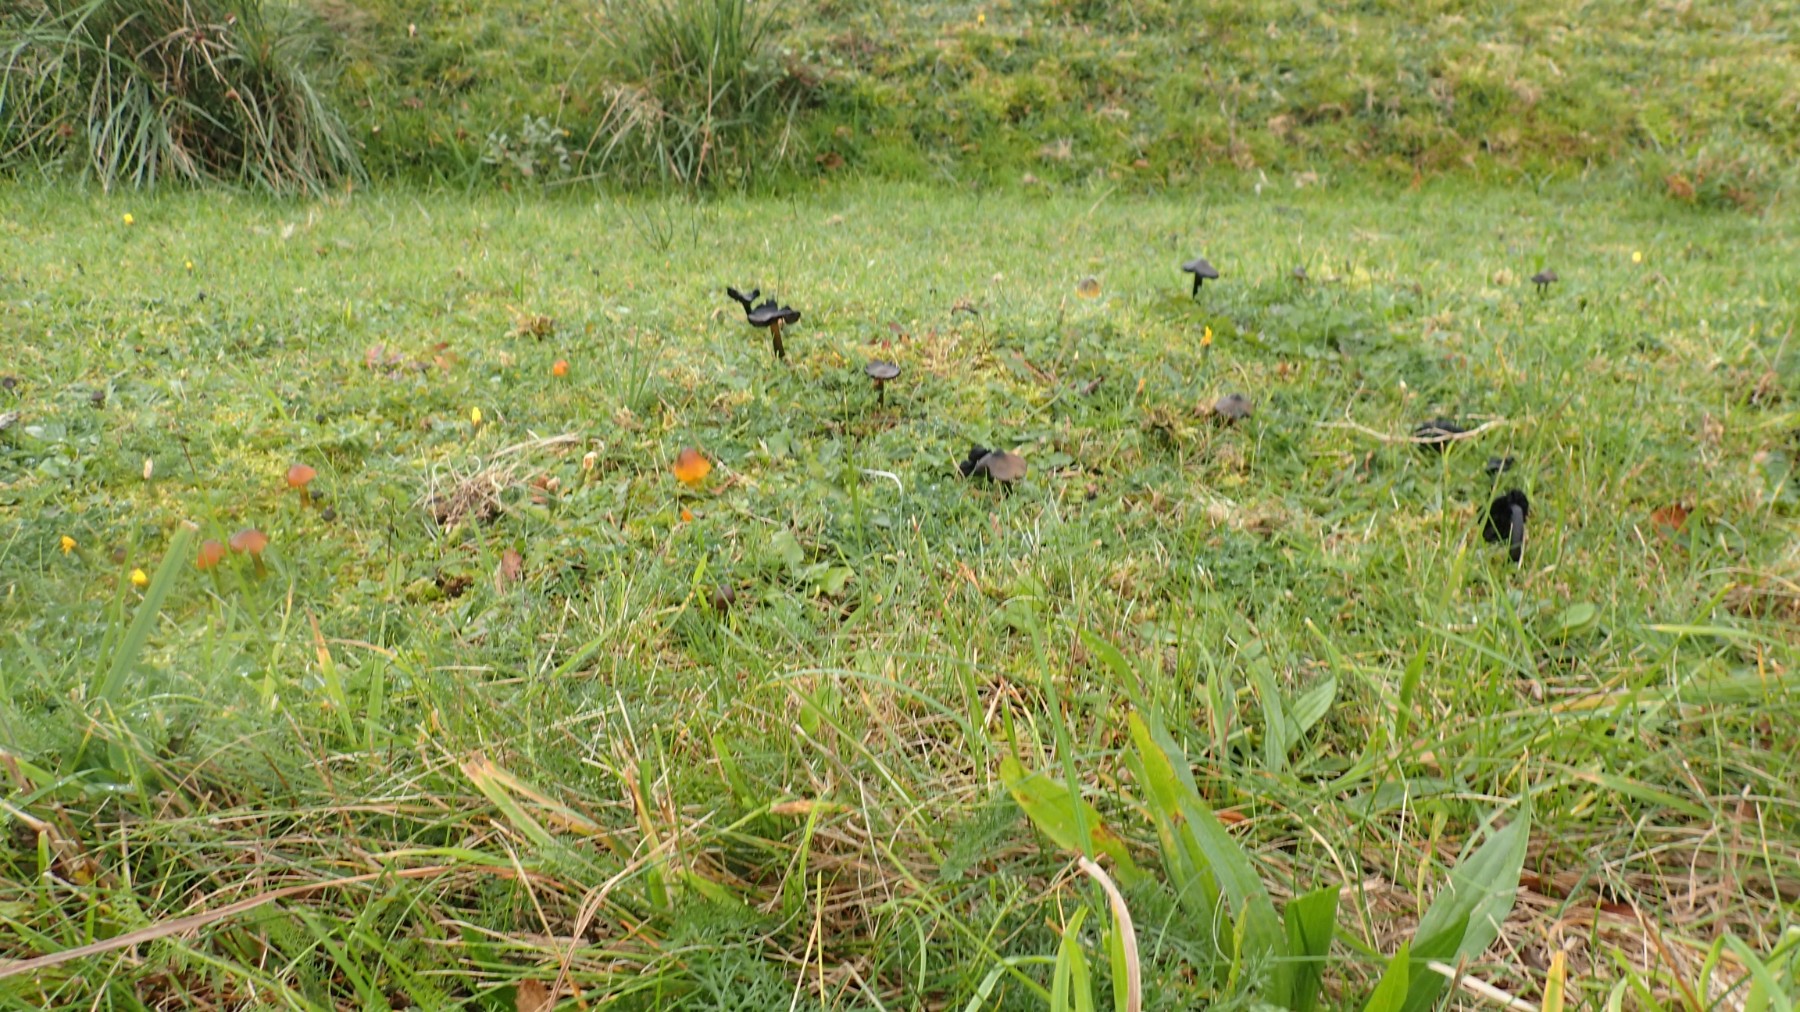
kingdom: Fungi
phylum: Basidiomycota
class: Agaricomycetes
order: Agaricales
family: Hygrophoraceae
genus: Hygrocybe
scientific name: Hygrocybe conica
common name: kegle-vokshat
